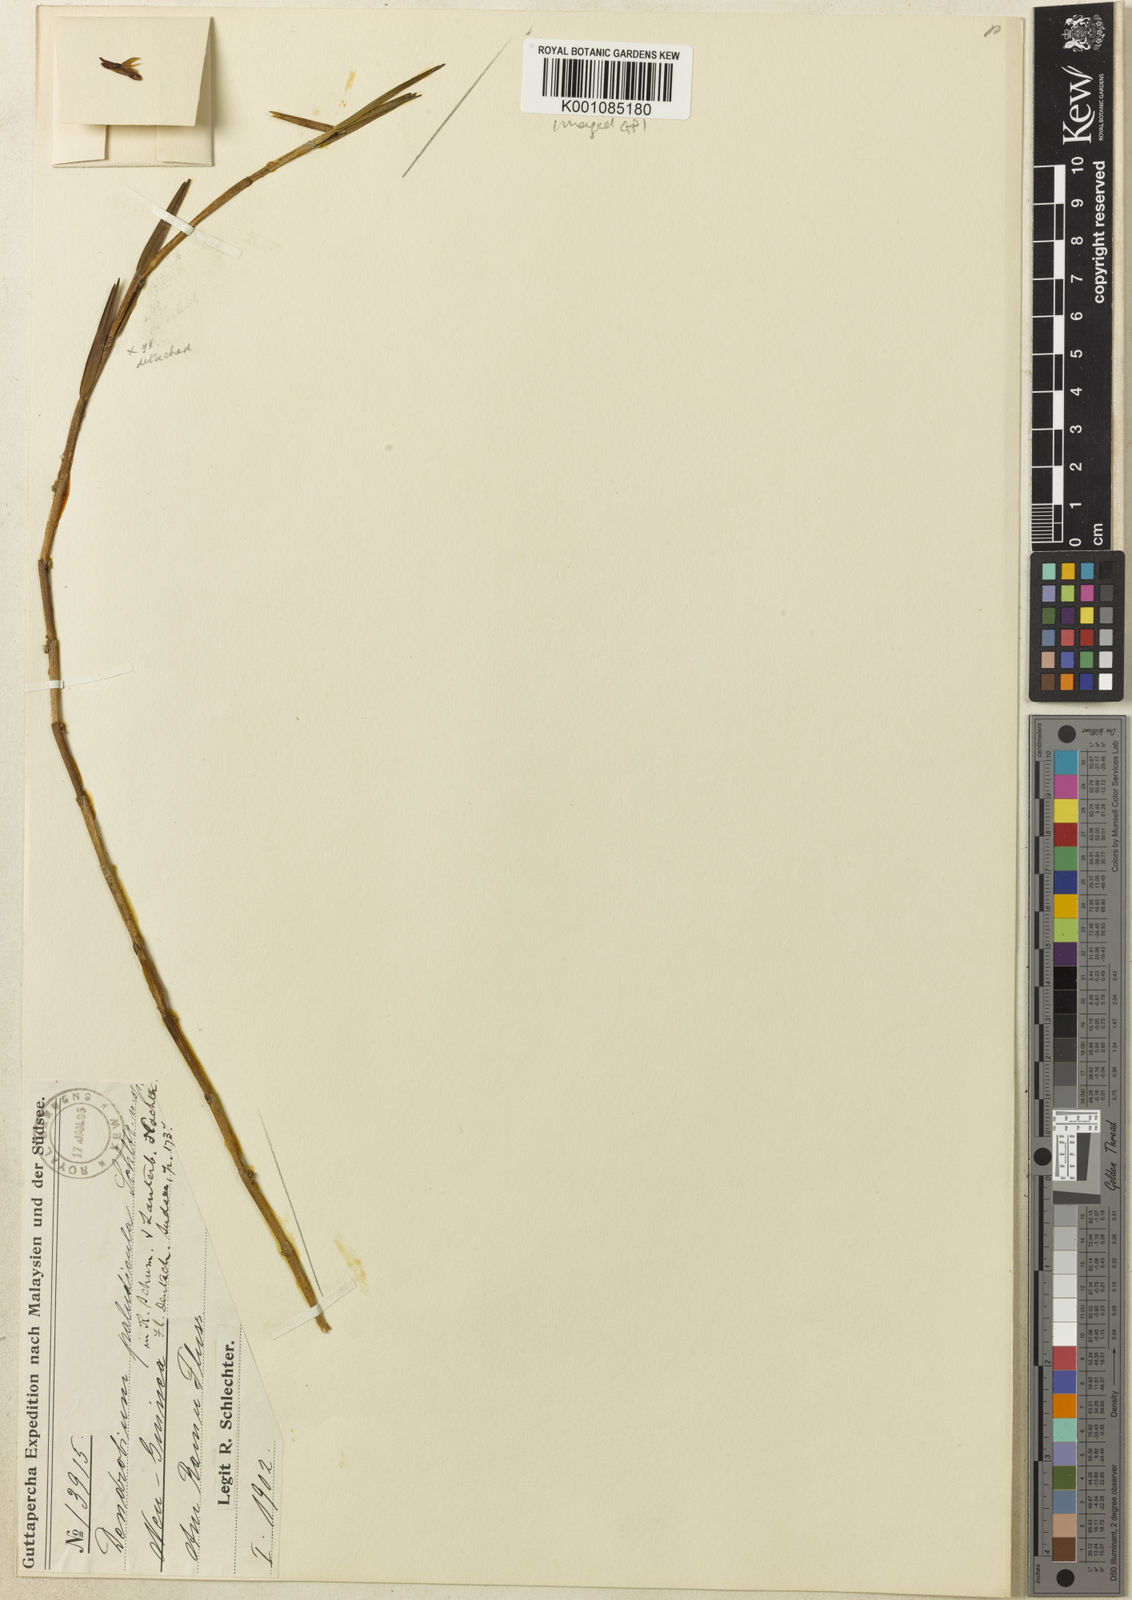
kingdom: Plantae
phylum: Tracheophyta
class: Liliopsida
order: Asparagales
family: Orchidaceae
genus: Dendrobium
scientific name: Dendrobium lobbii
